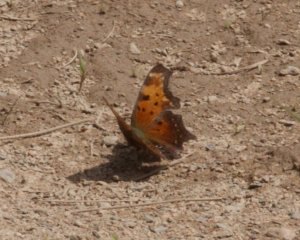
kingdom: Animalia
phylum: Arthropoda
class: Insecta
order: Lepidoptera
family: Nymphalidae
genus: Polygonia
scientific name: Polygonia progne
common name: Gray Comma
